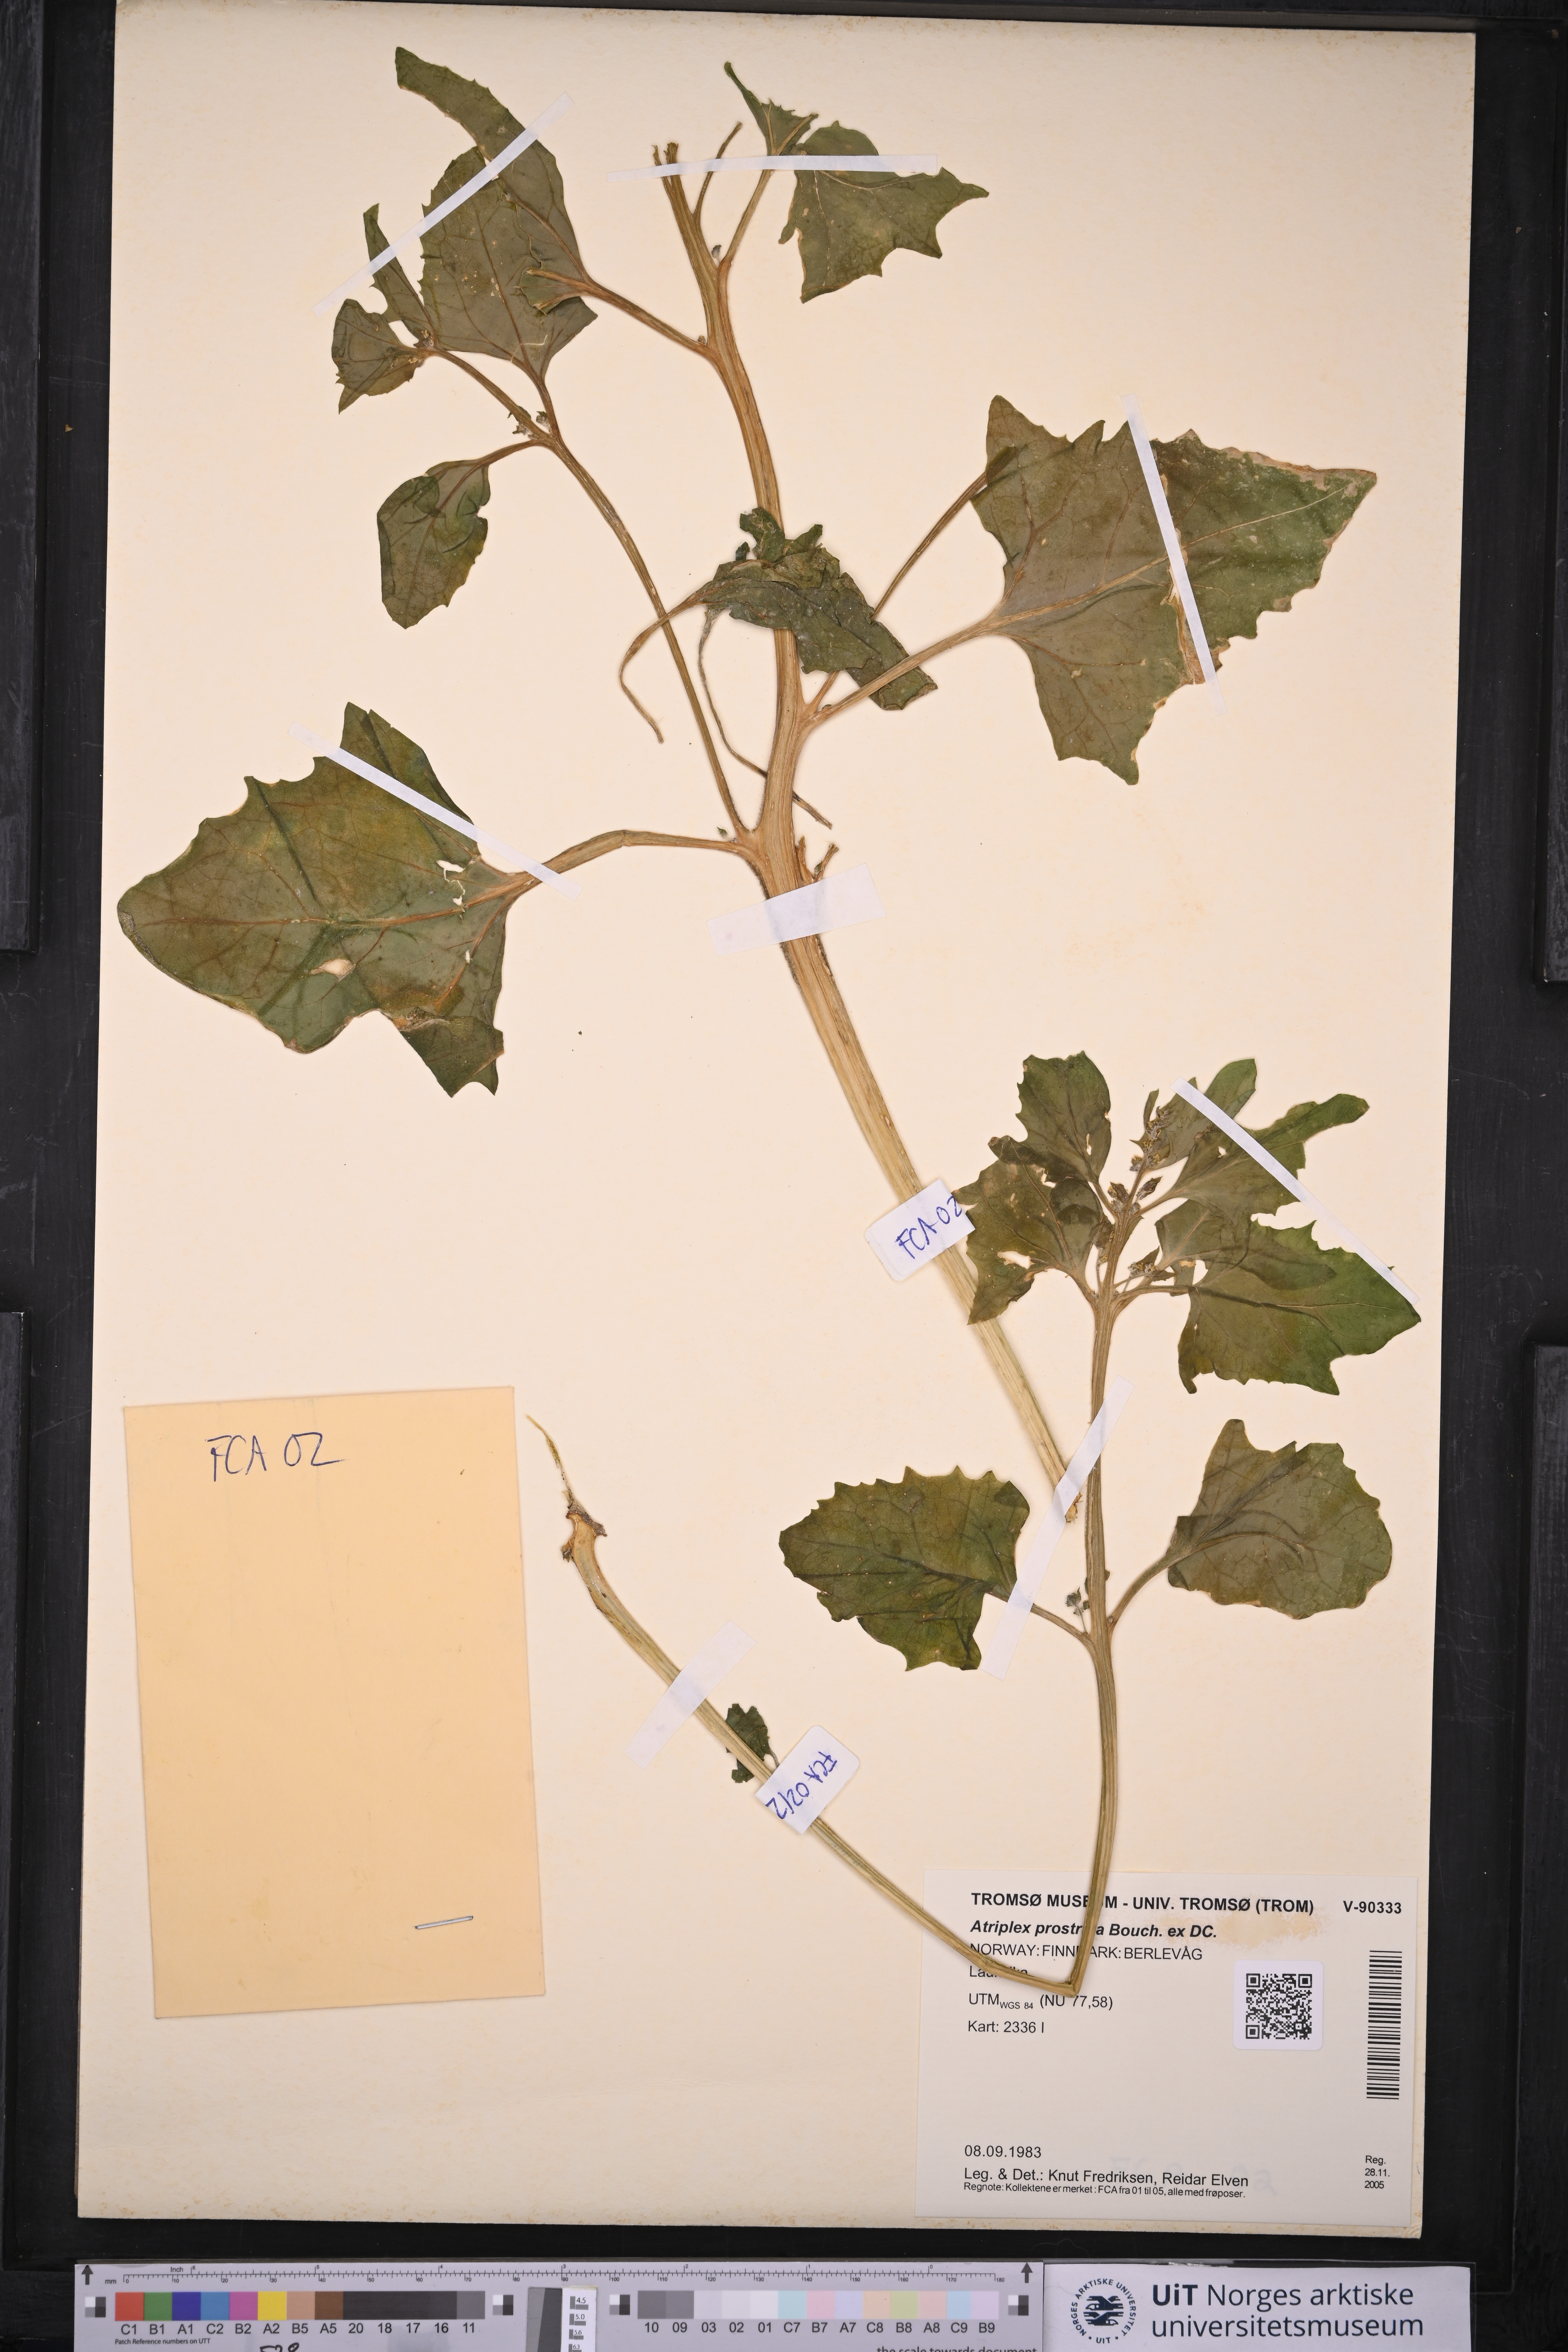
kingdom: Plantae
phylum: Tracheophyta
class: Magnoliopsida
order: Caryophyllales
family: Amaranthaceae
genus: Atriplex
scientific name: Atriplex prostrata
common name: Spear-leaved orache
